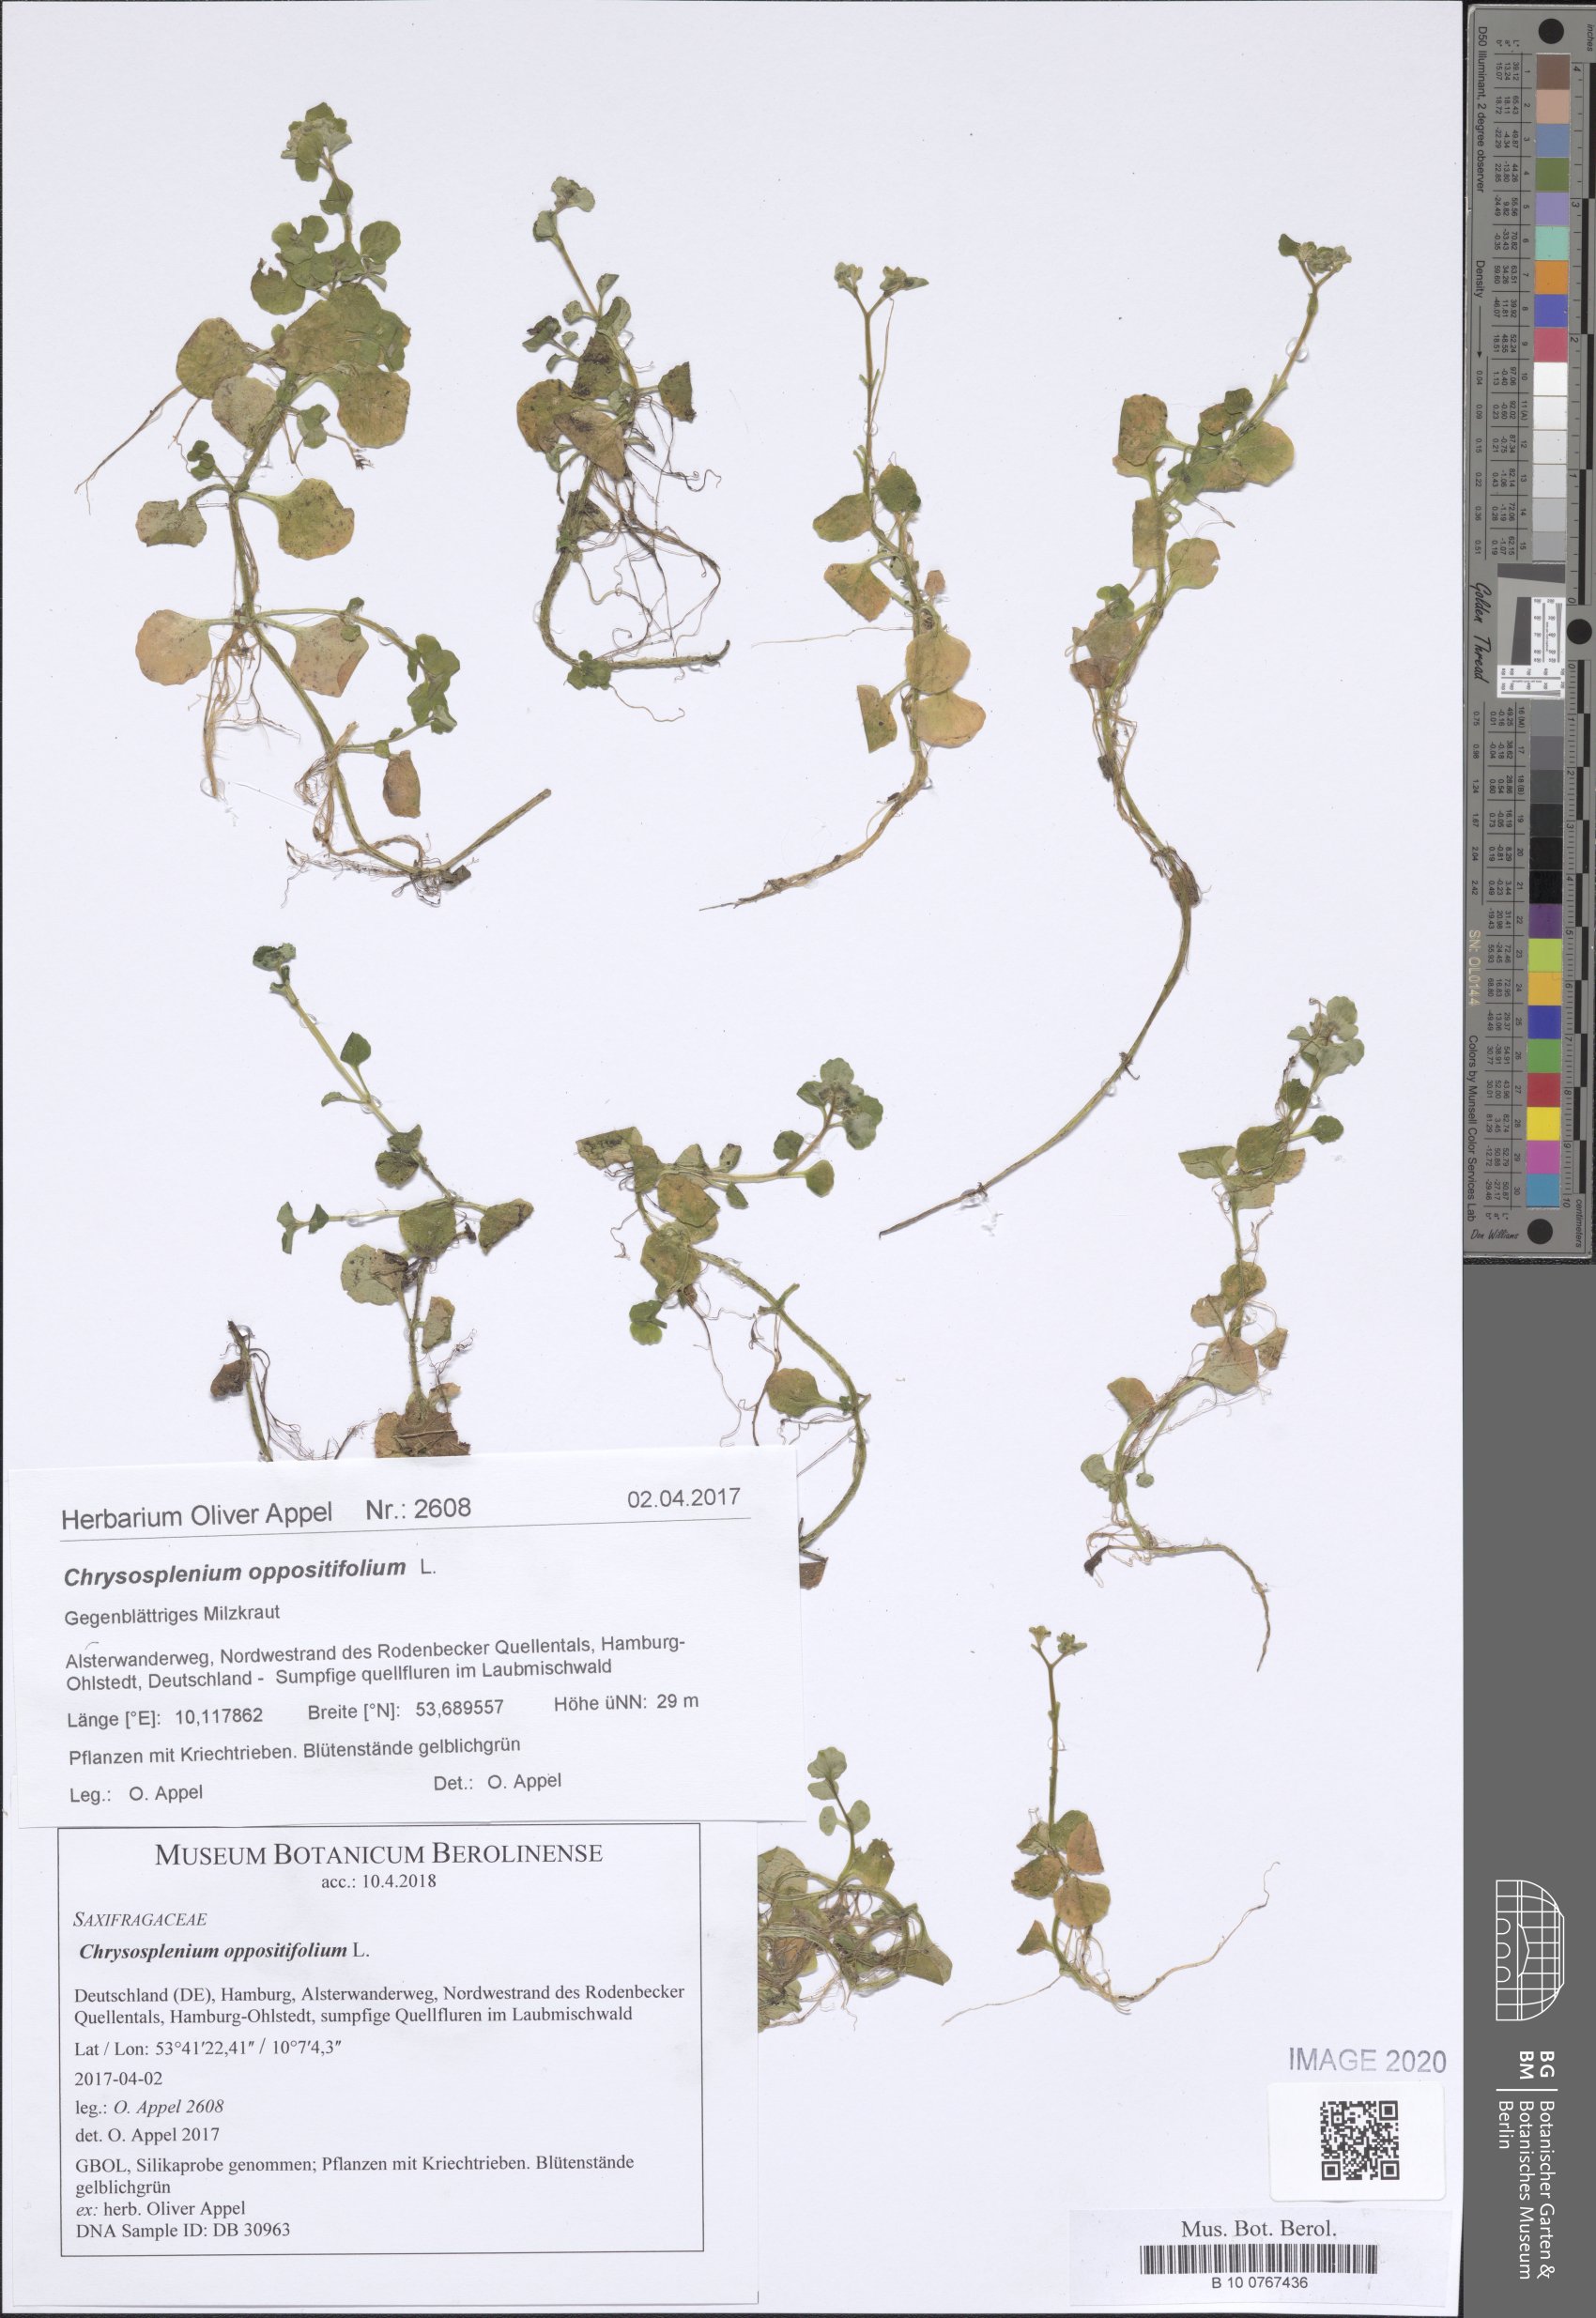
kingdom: Plantae
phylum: Tracheophyta
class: Magnoliopsida
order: Saxifragales
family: Saxifragaceae
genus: Chrysosplenium
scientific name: Chrysosplenium oppositifolium
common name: Opposite-leaved golden-saxifrage
